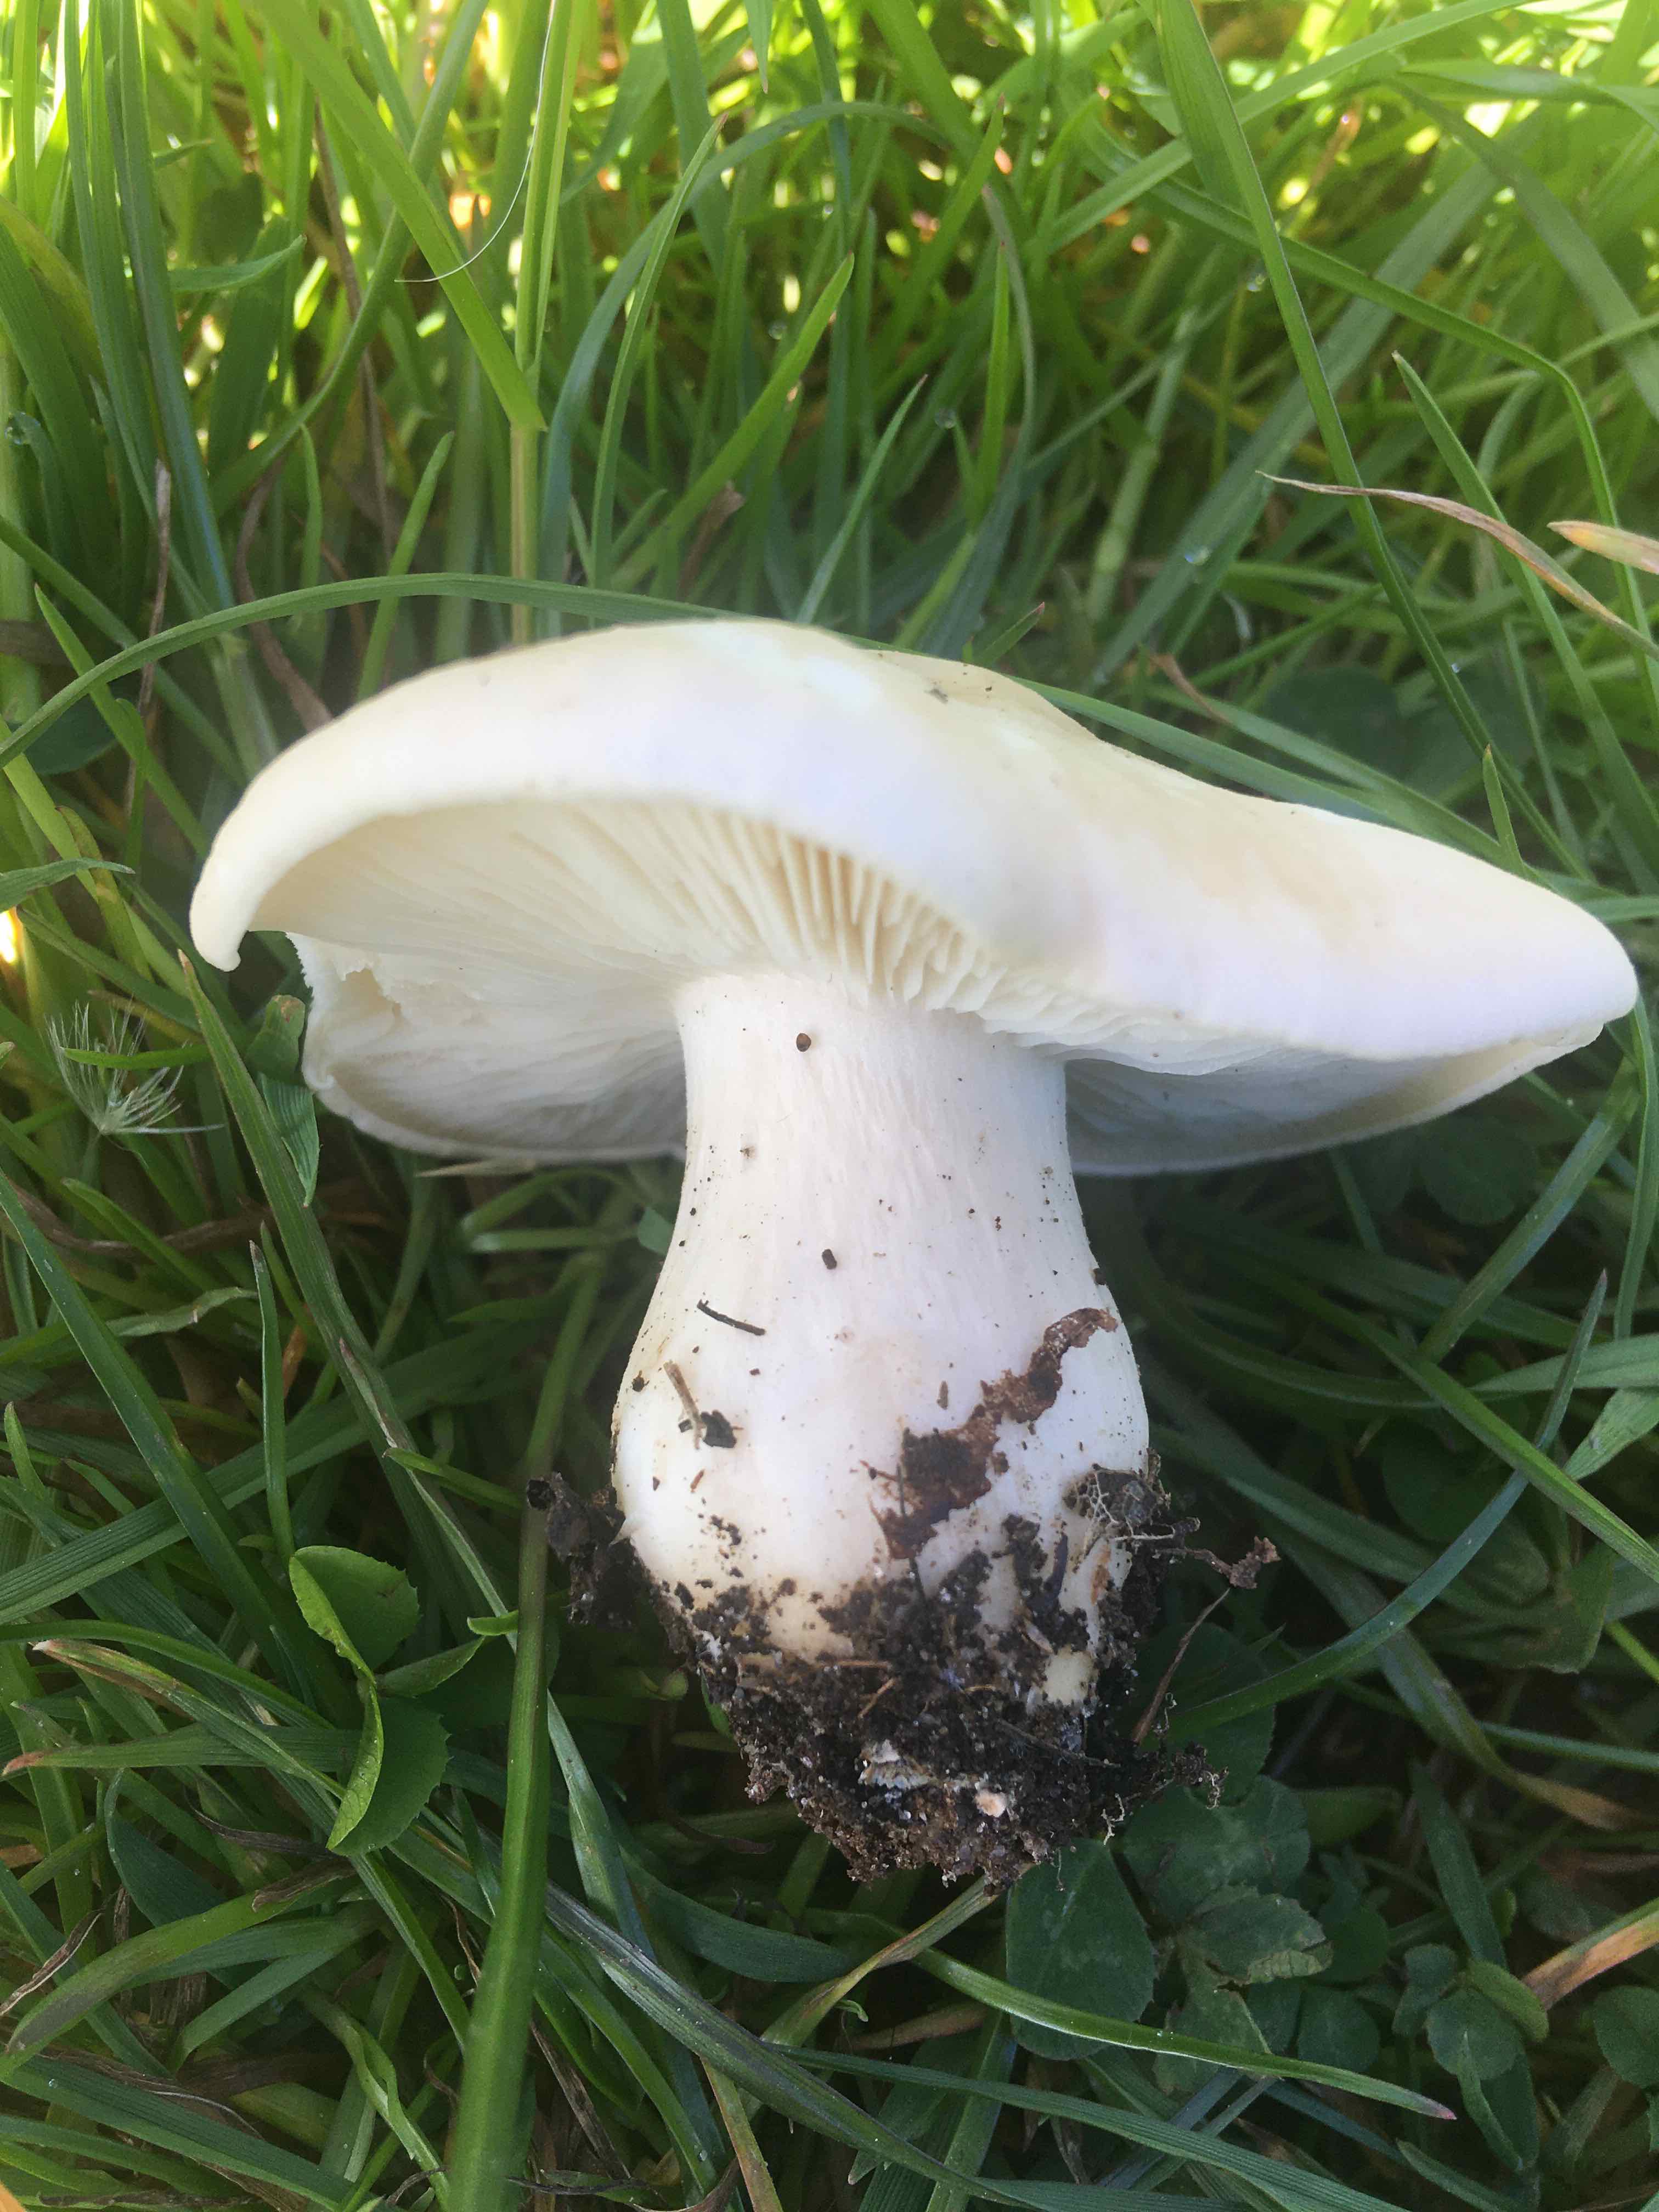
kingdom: Fungi
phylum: Basidiomycota
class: Agaricomycetes
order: Agaricales
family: Lyophyllaceae
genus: Calocybe
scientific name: Calocybe gambosa
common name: vårmusseron
